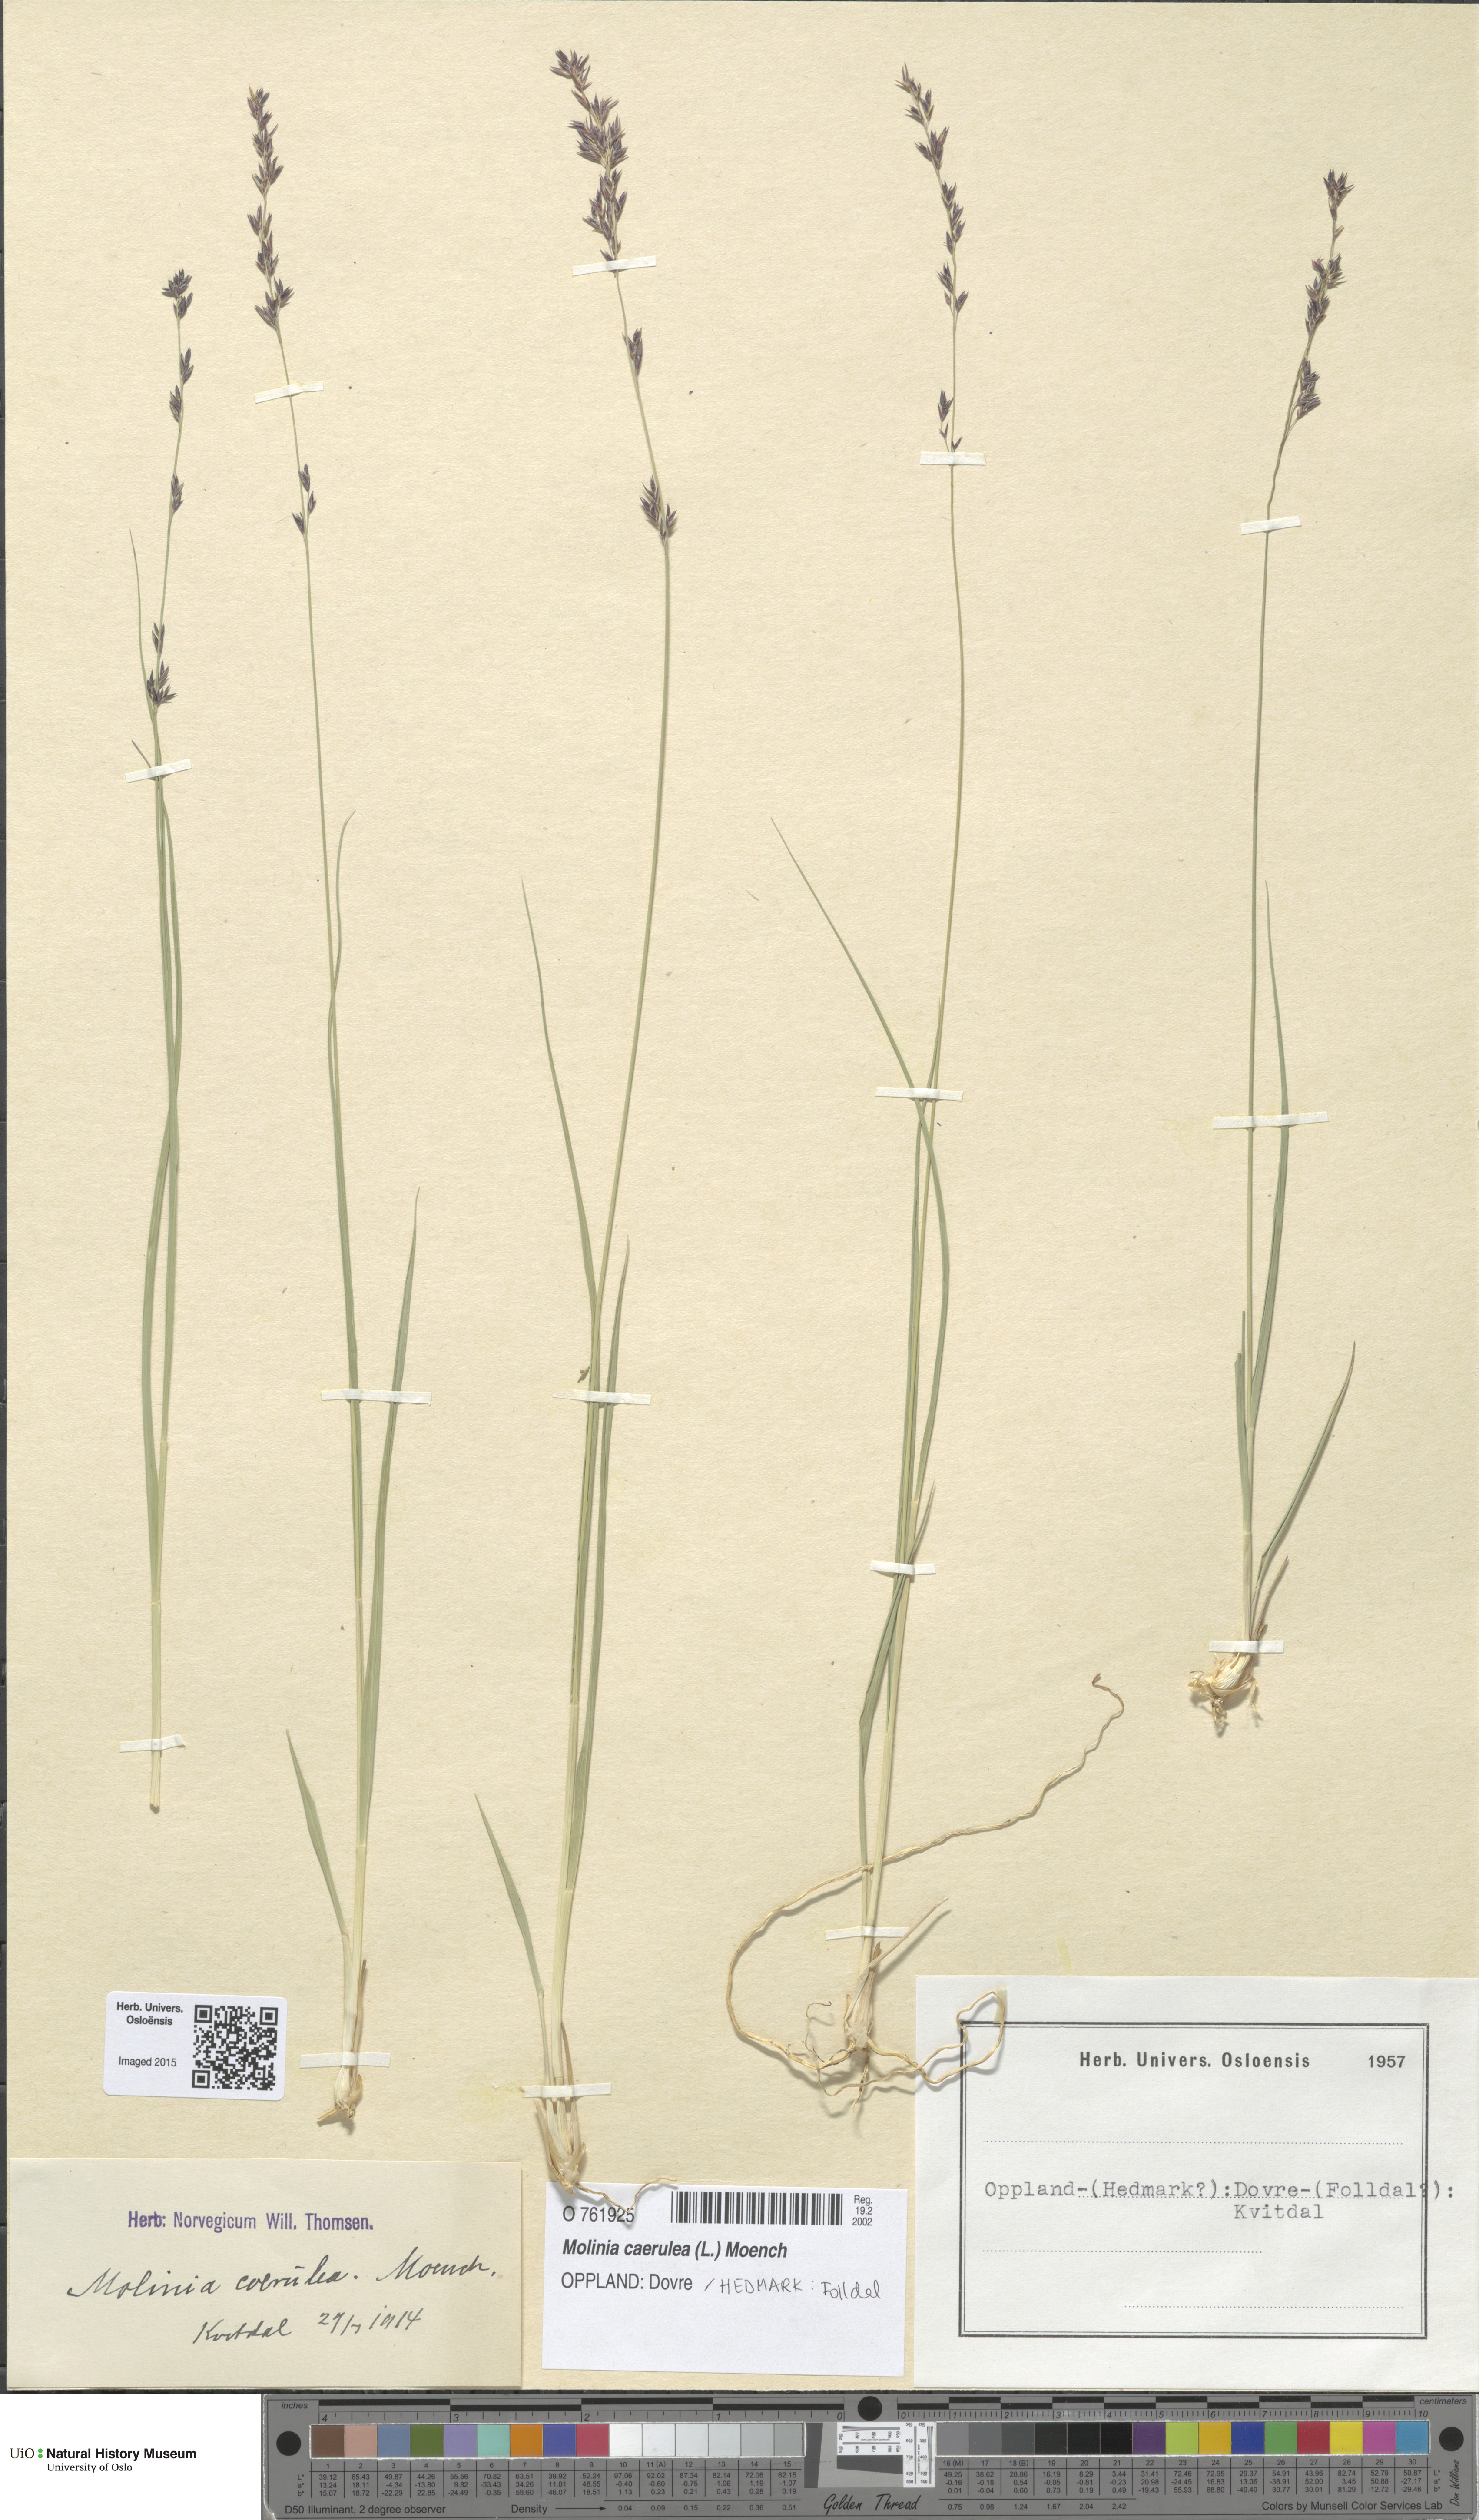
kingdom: Plantae
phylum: Tracheophyta
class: Liliopsida
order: Poales
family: Poaceae
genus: Molinia
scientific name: Molinia caerulea
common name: Purple moor-grass
